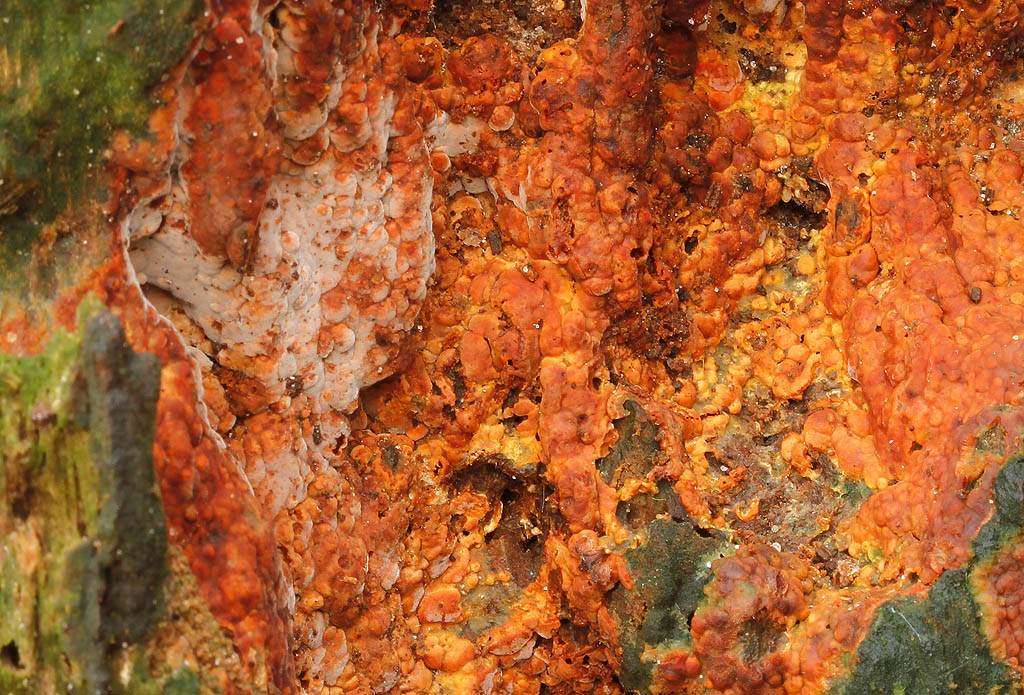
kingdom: Fungi
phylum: Basidiomycota
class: Agaricomycetes
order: Russulales
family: Peniophoraceae
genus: Gloiothele
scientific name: Gloiothele lactescens
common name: bitter olieskind
